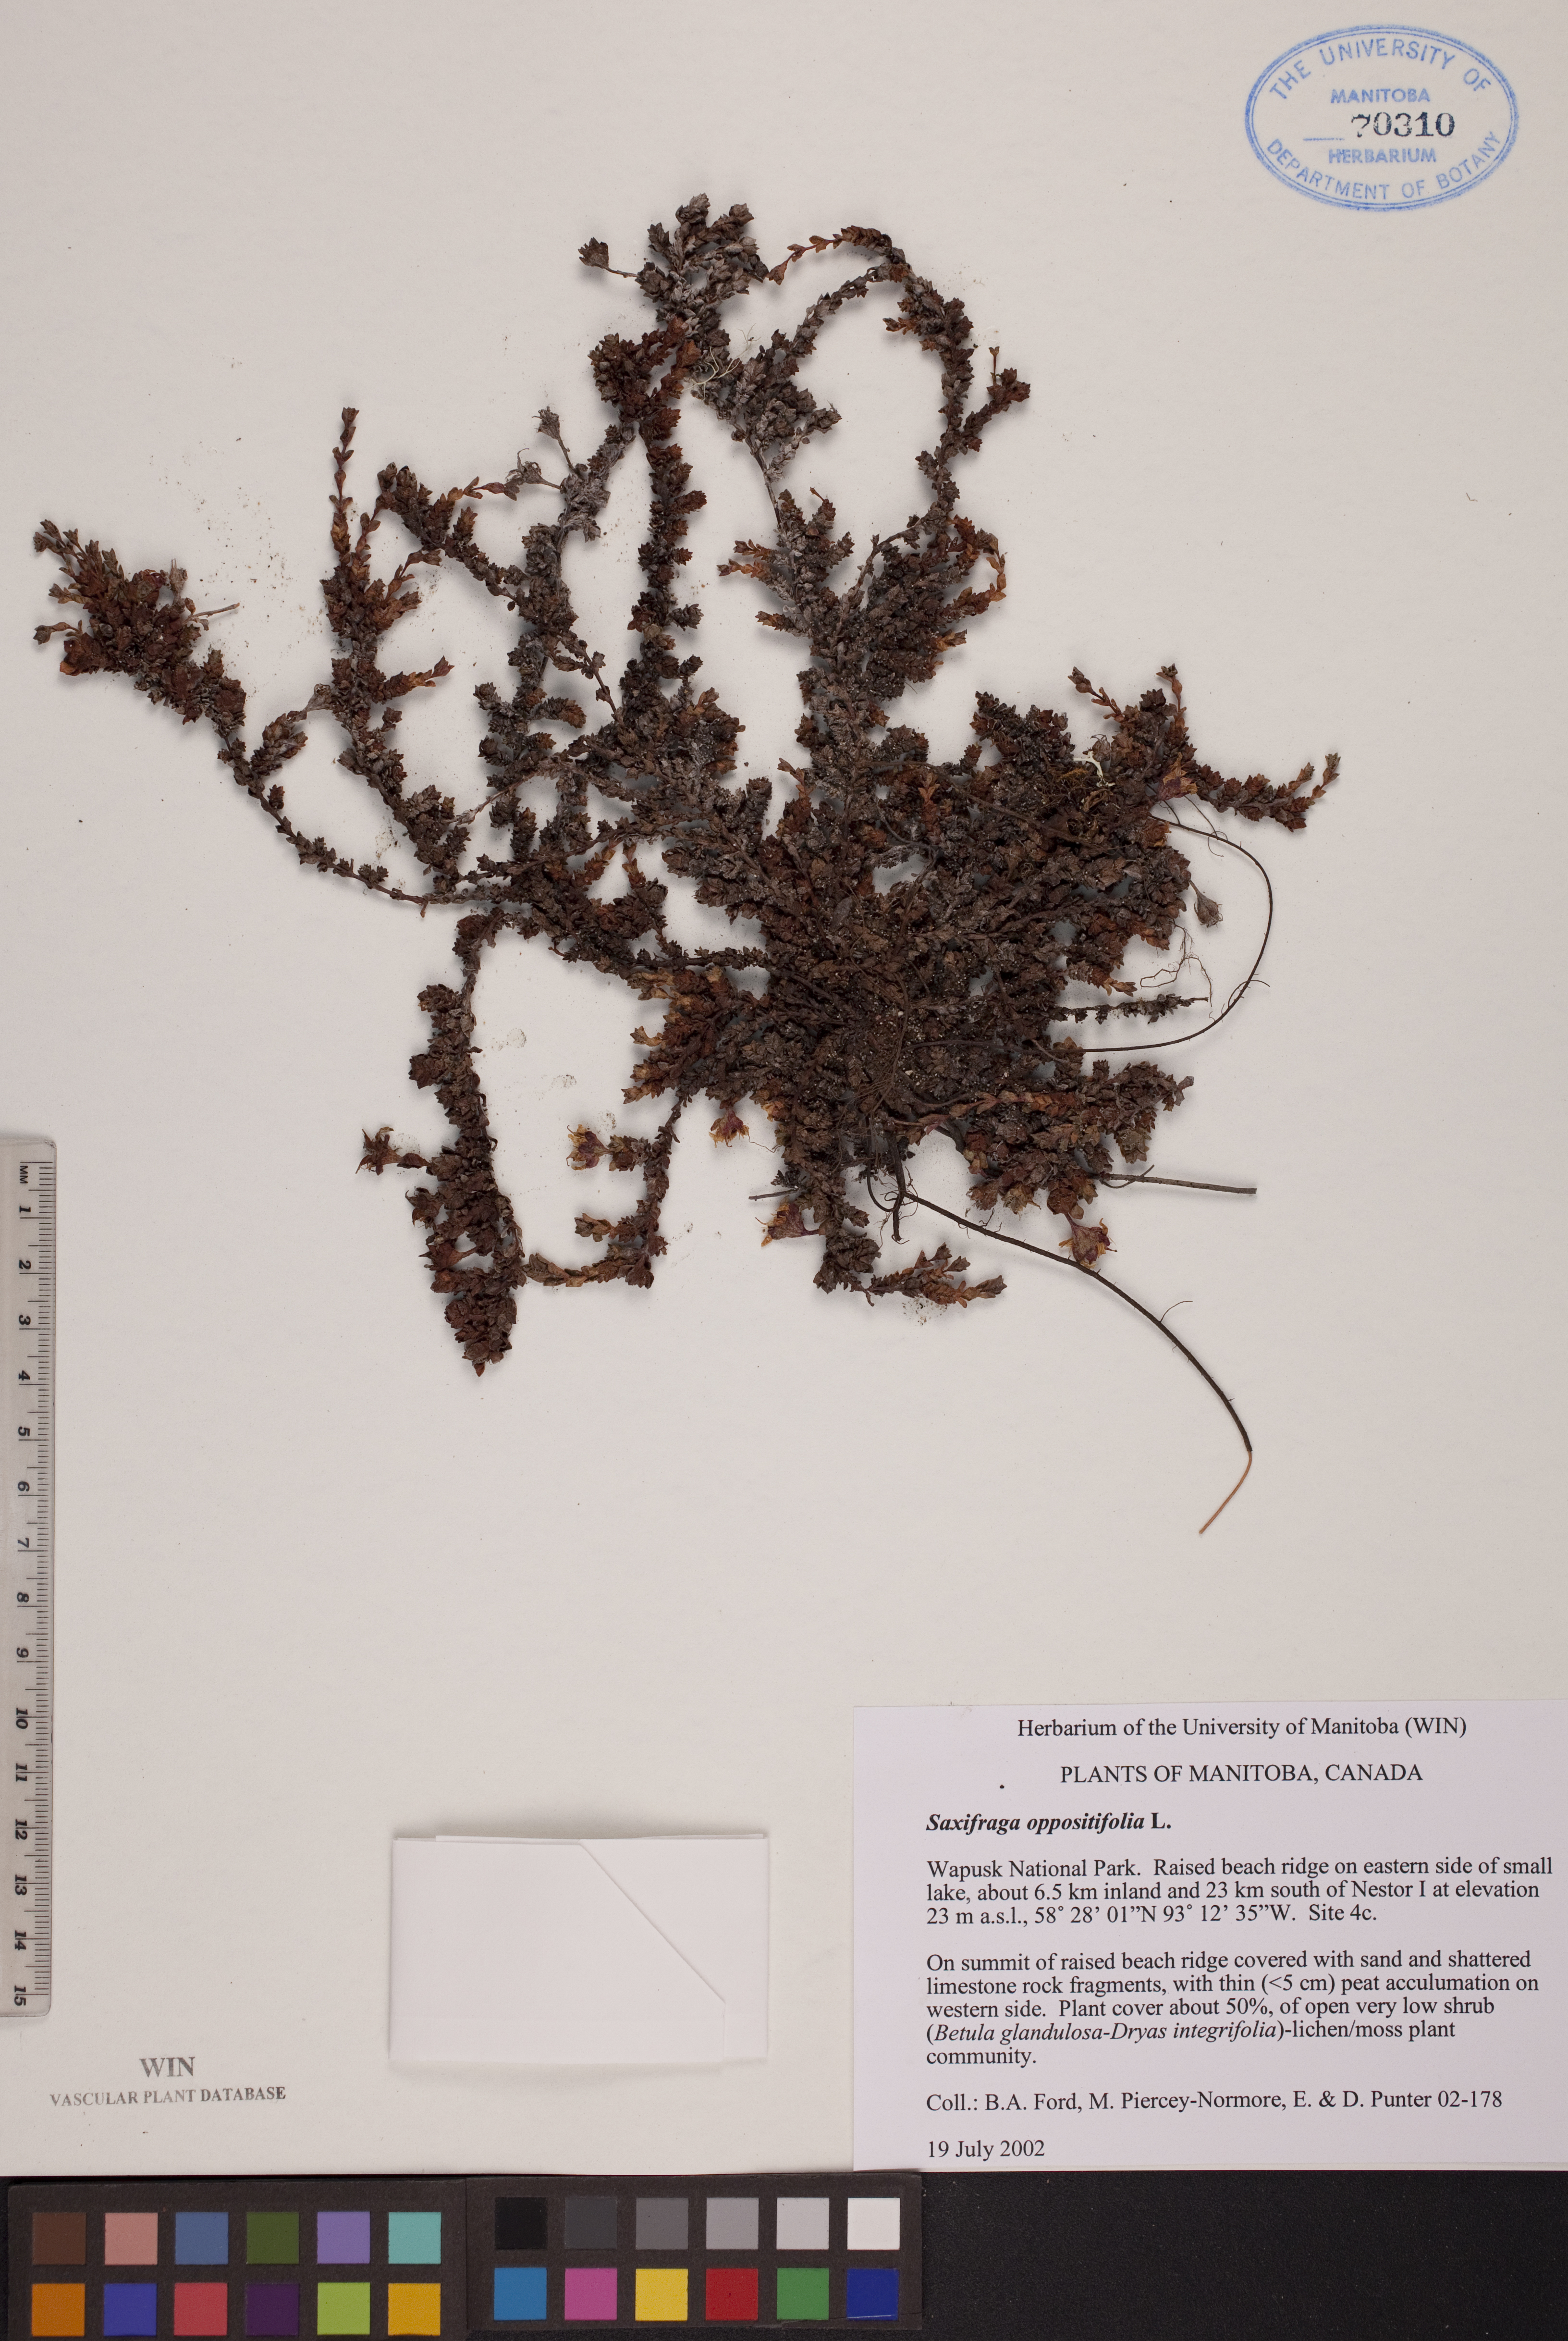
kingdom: Plantae
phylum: Tracheophyta
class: Magnoliopsida
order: Saxifragales
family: Saxifragaceae
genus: Saxifraga
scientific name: Saxifraga oppositifolia
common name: Purple saxifrage
